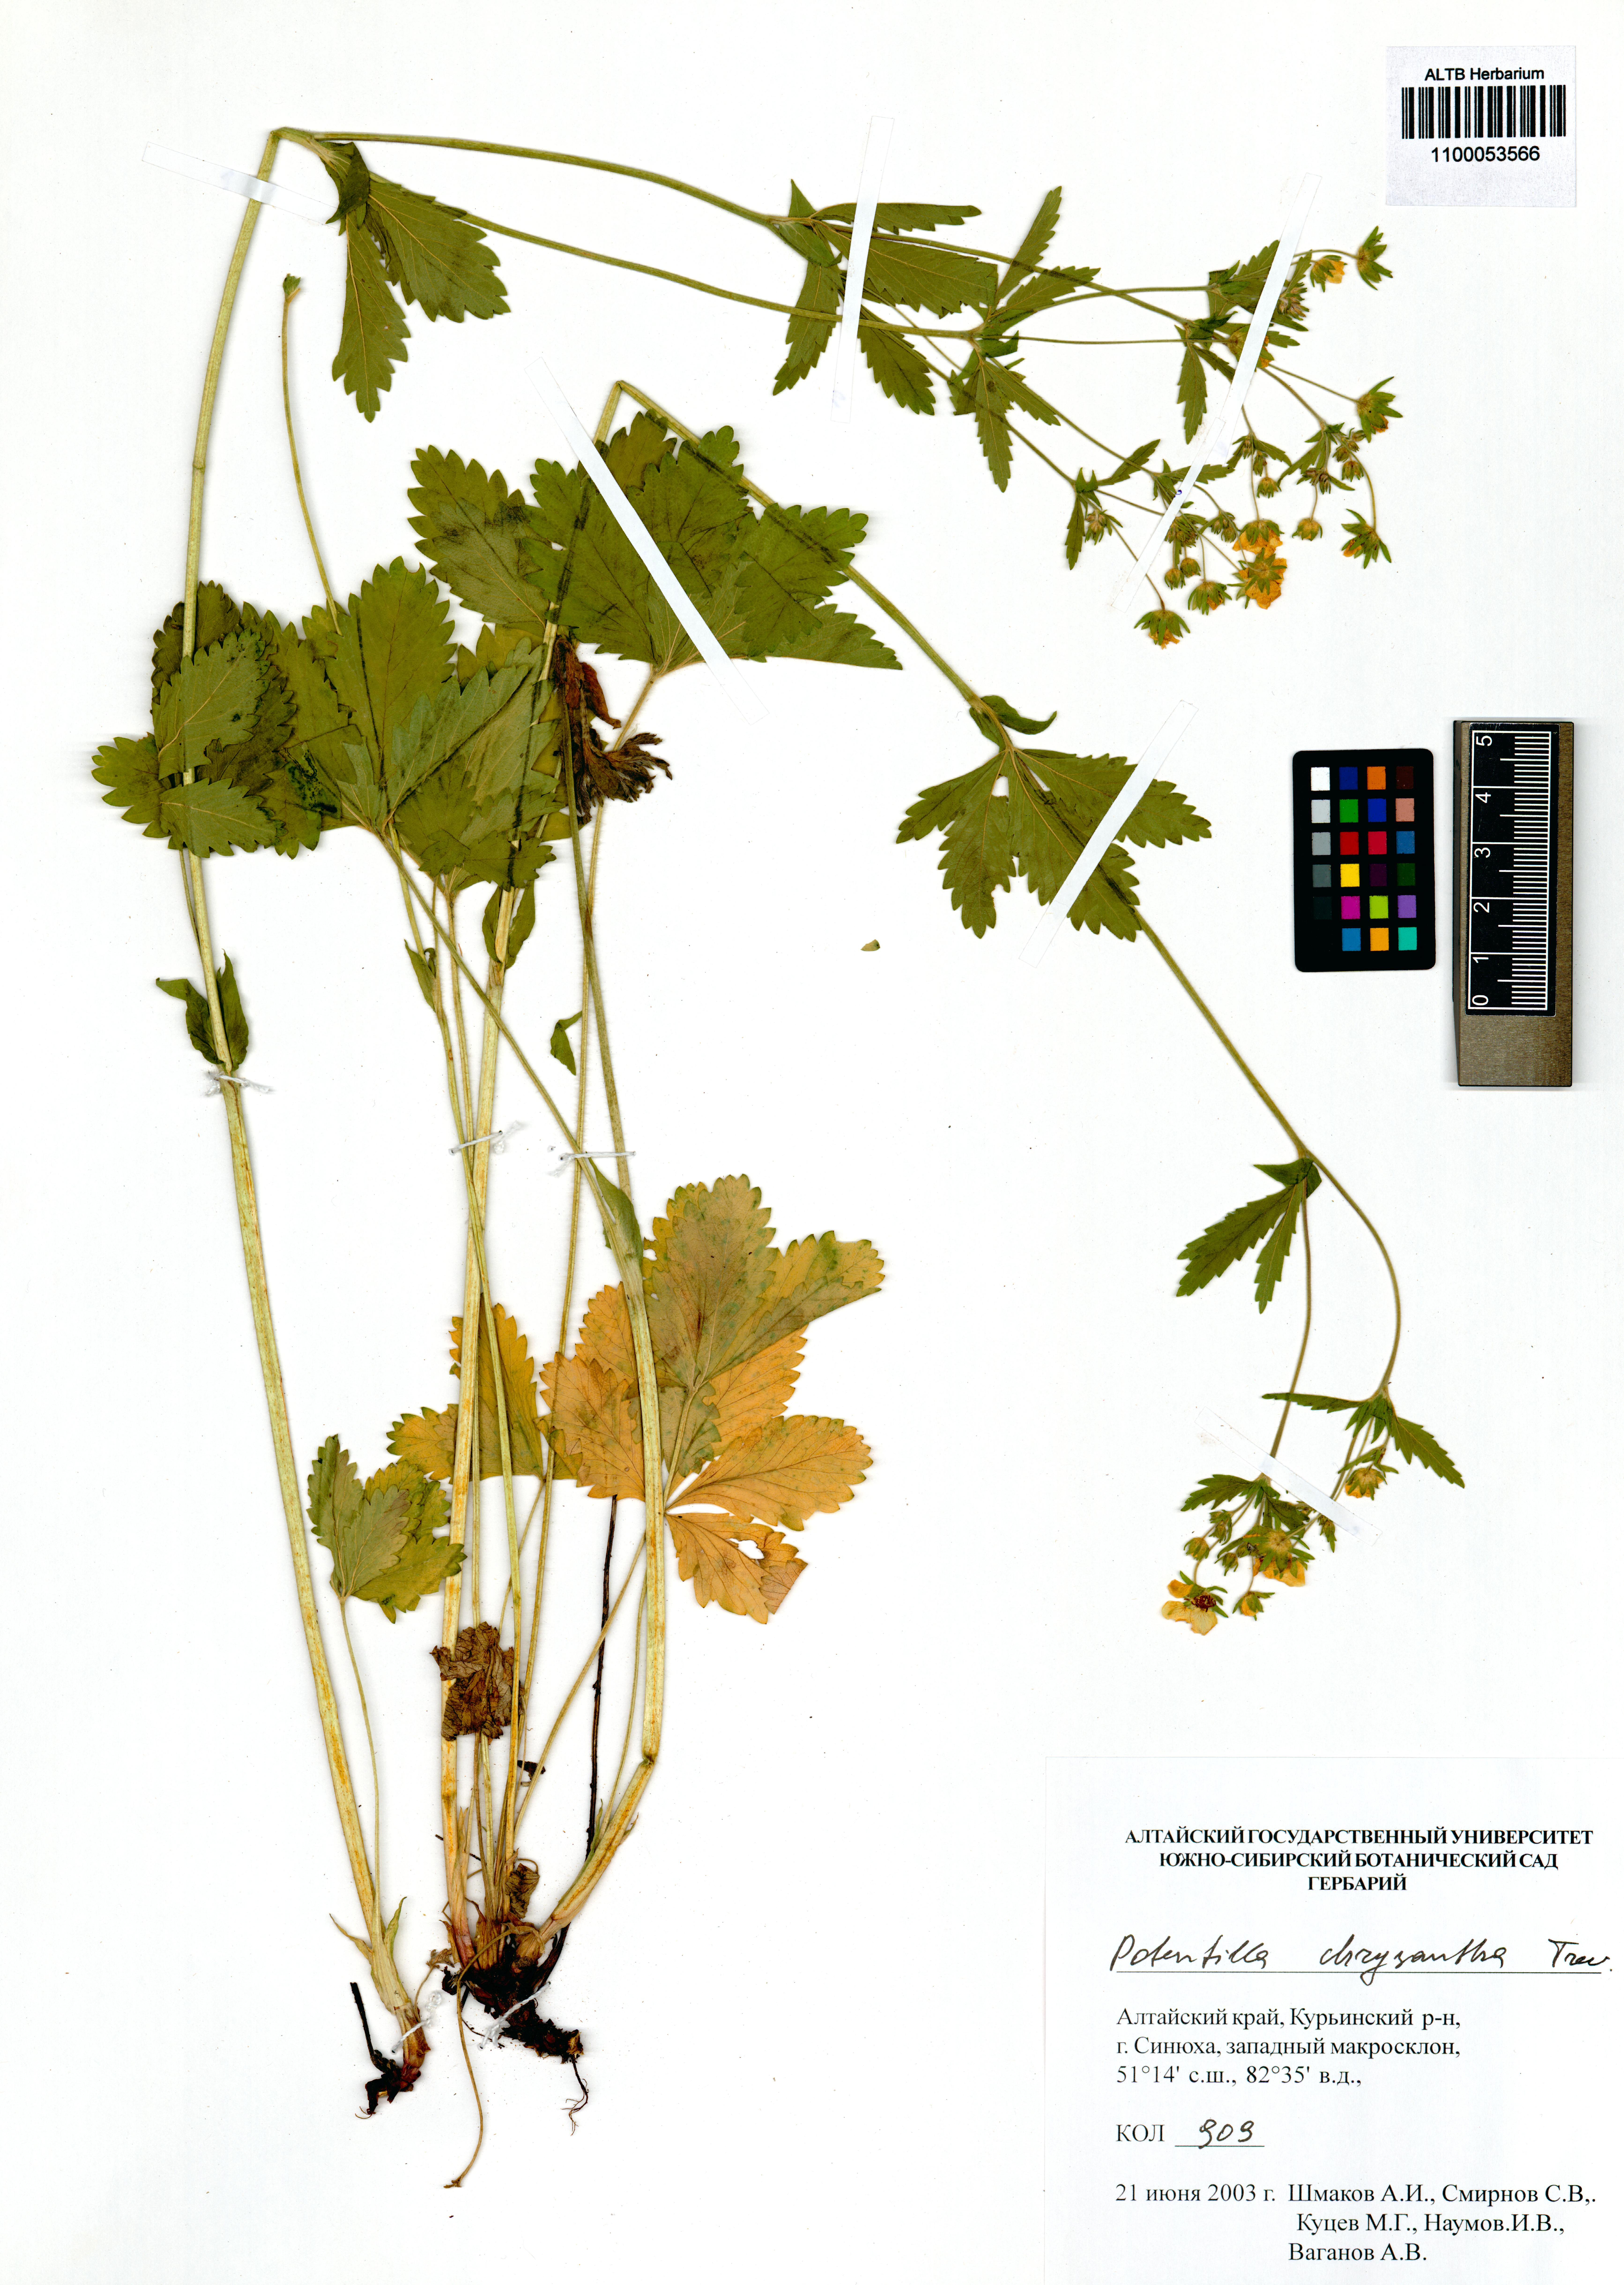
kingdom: Plantae
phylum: Tracheophyta
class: Magnoliopsida
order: Rosales
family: Rosaceae
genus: Potentilla
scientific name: Potentilla chrysantha
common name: Thuringian cinquefoil
